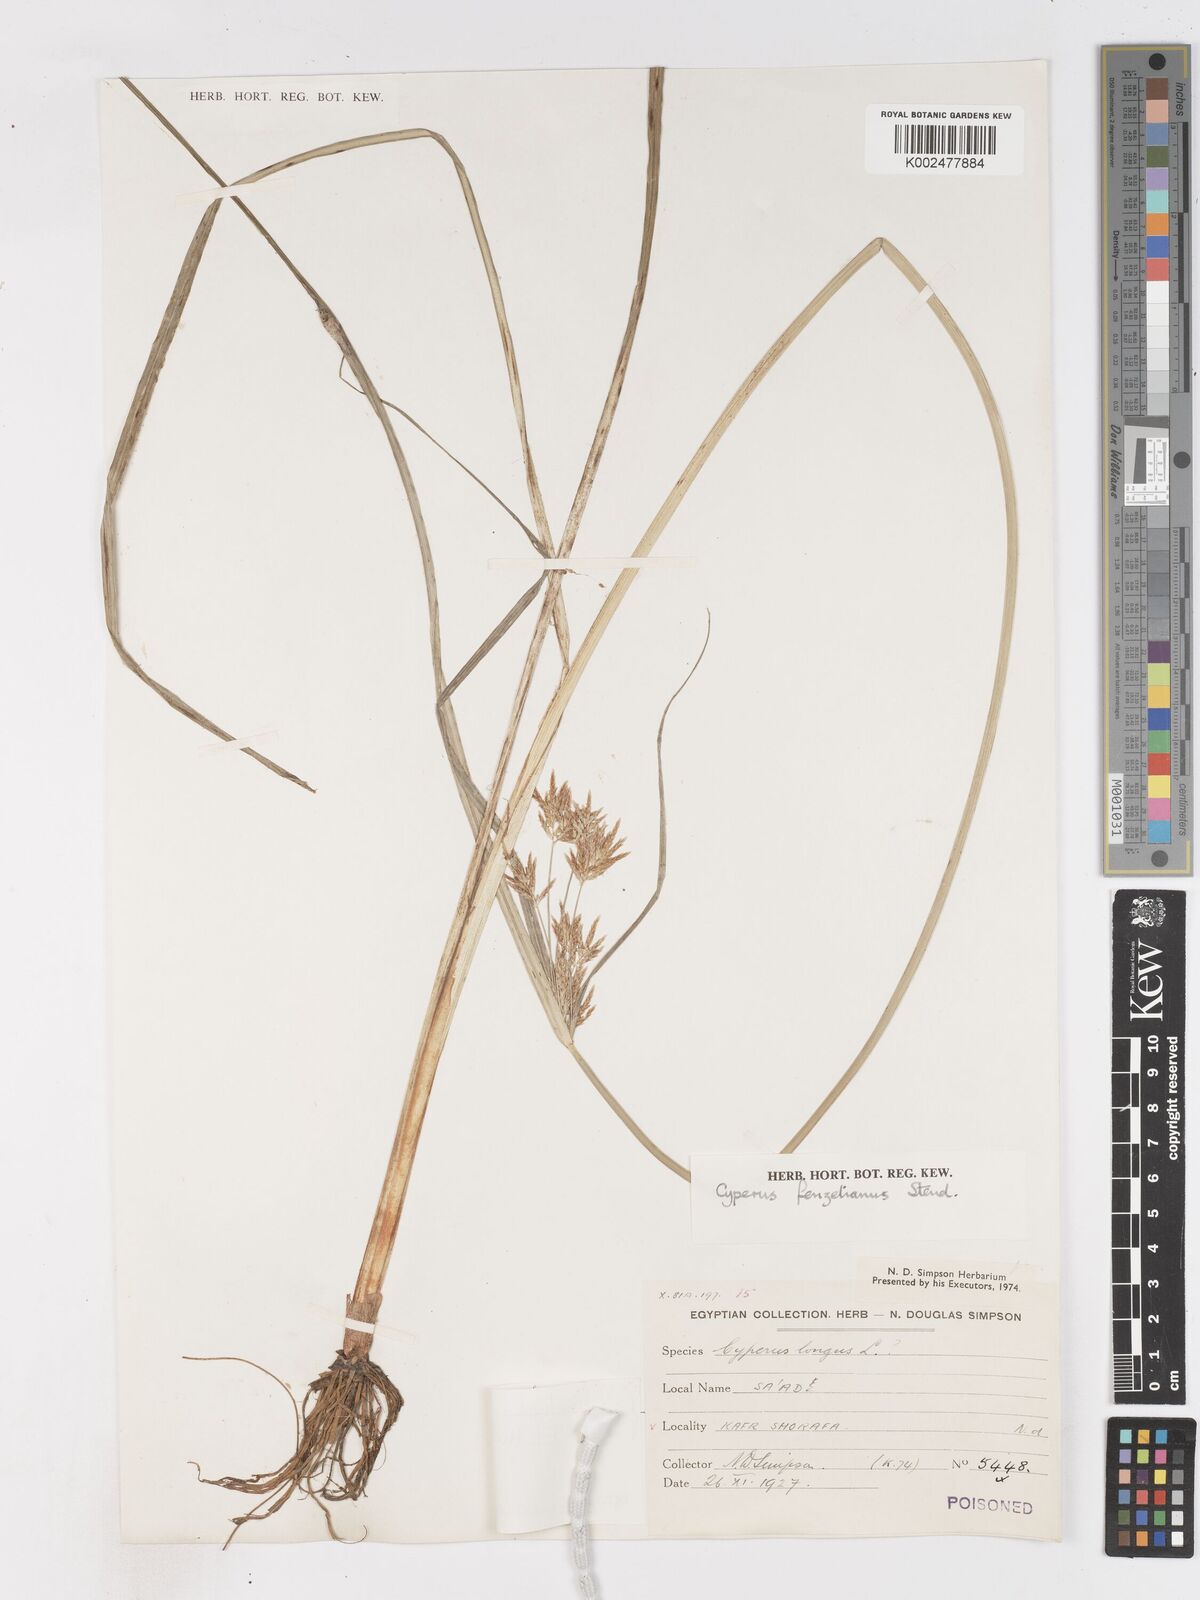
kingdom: Plantae
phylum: Tracheophyta
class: Liliopsida
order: Poales
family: Cyperaceae
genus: Cyperus
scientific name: Cyperus longus
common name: Galingale
